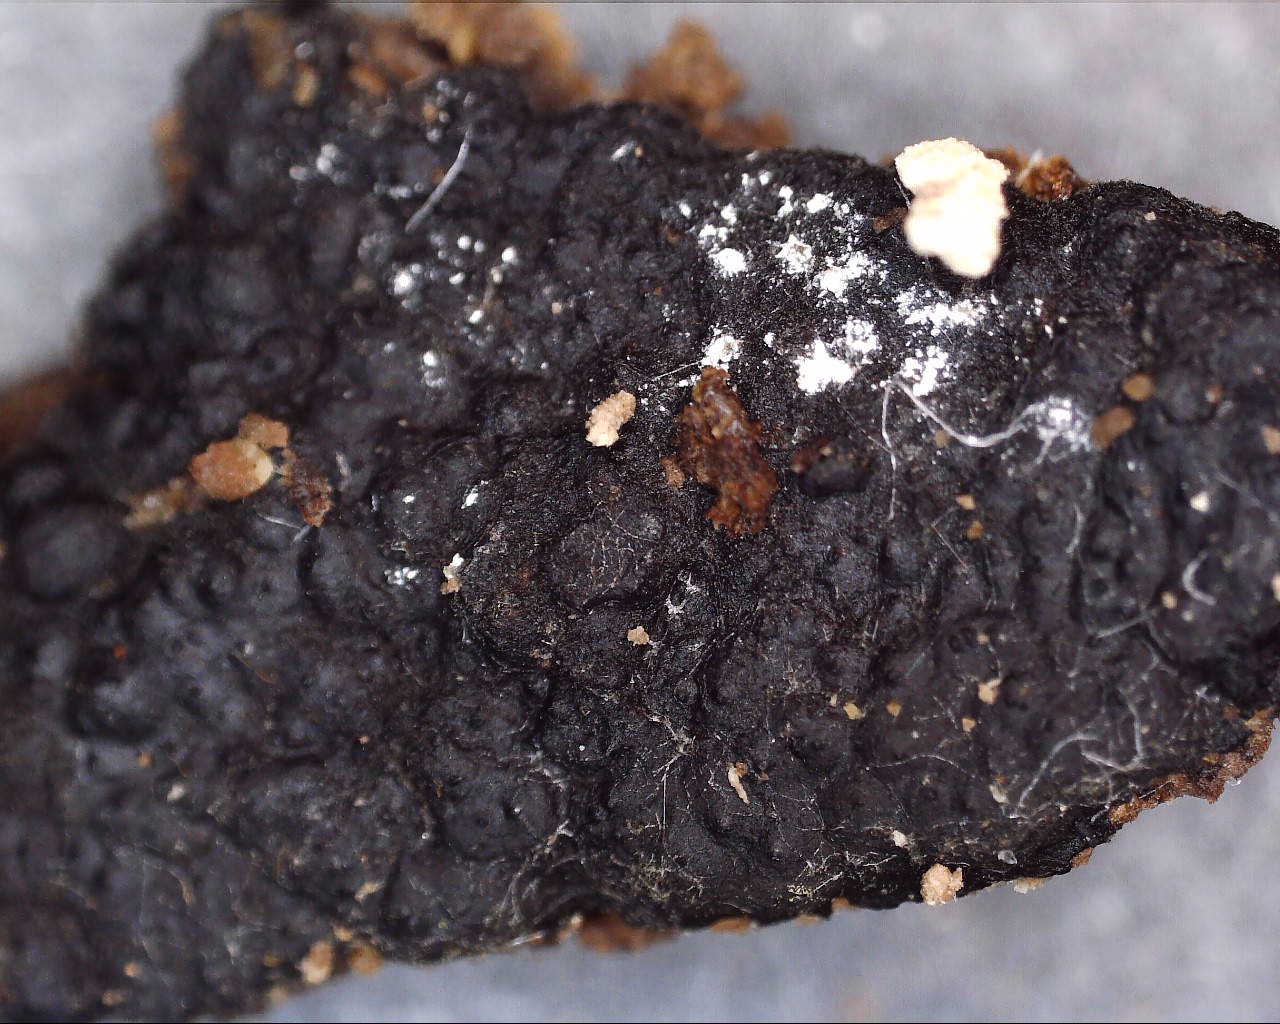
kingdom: Fungi
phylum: Ascomycota
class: Sordariomycetes
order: Xylariales
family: Xylariaceae
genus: Nemania
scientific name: Nemania
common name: kuldyne
